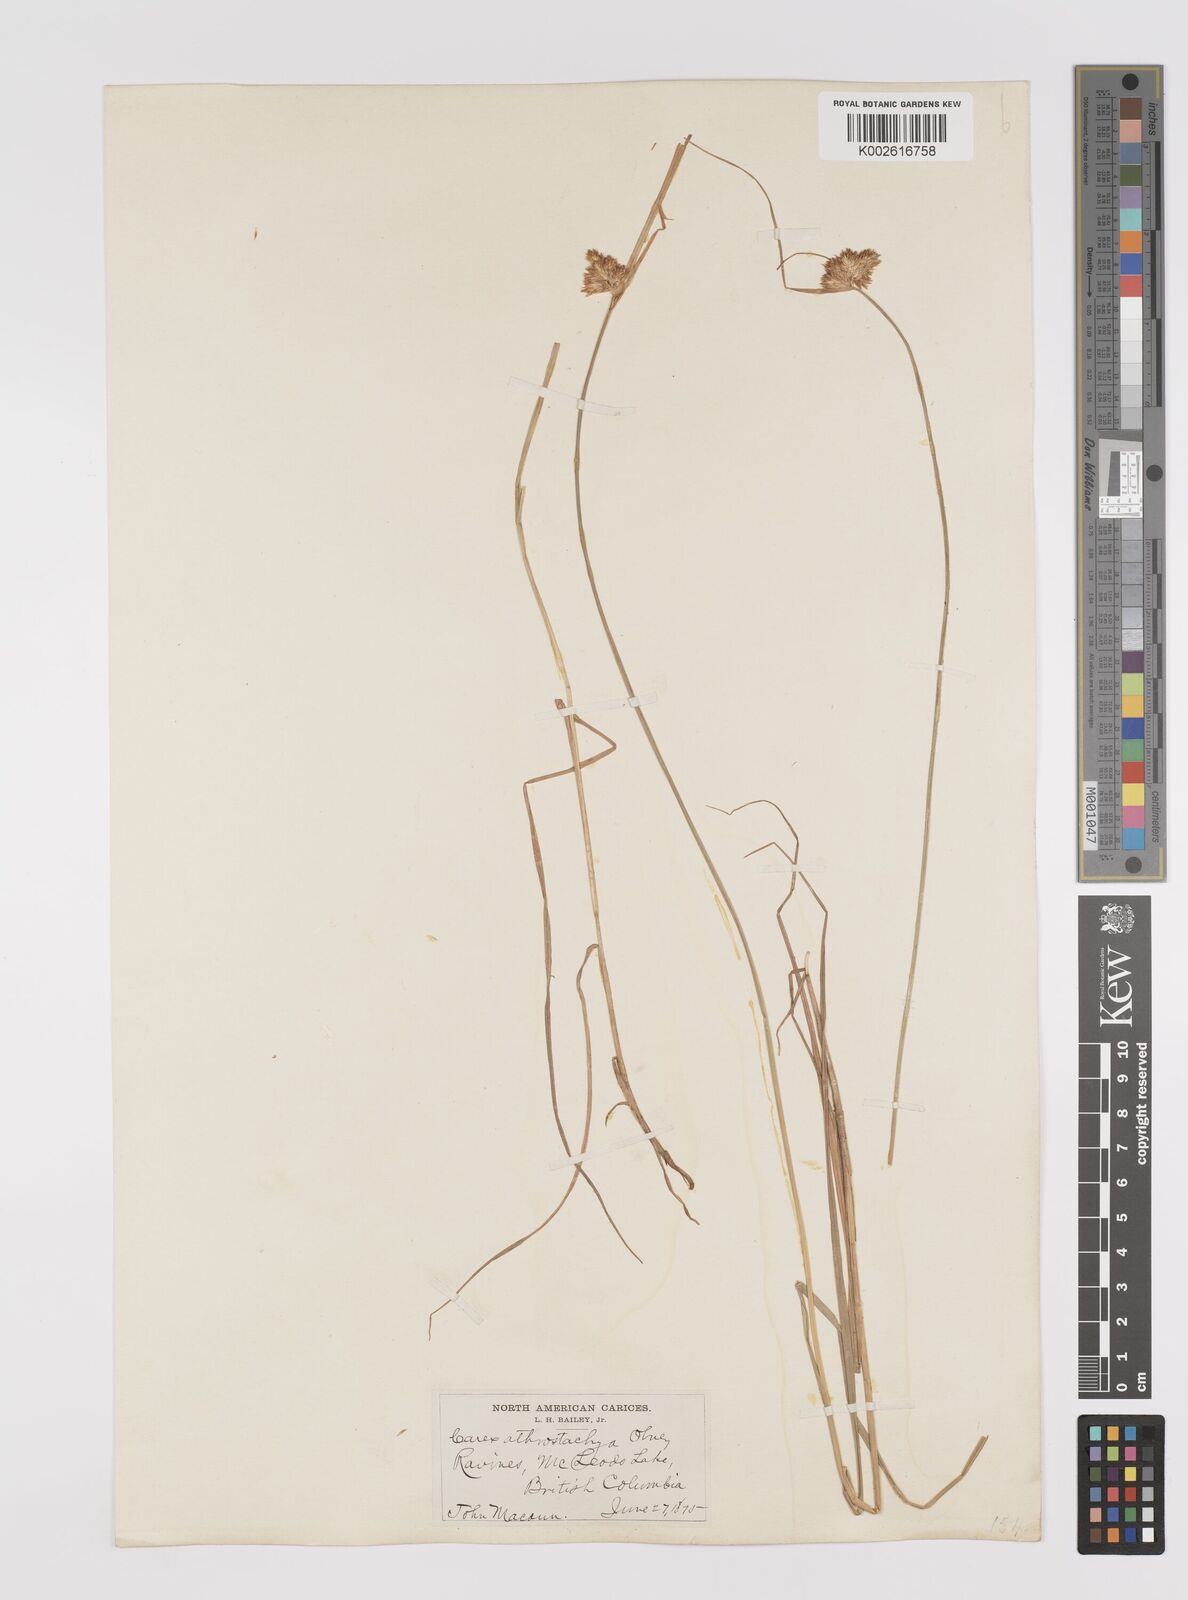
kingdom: Plantae
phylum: Tracheophyta
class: Liliopsida
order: Poales
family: Cyperaceae
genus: Carex
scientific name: Carex athrostachya
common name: Slenderbeak sedge
